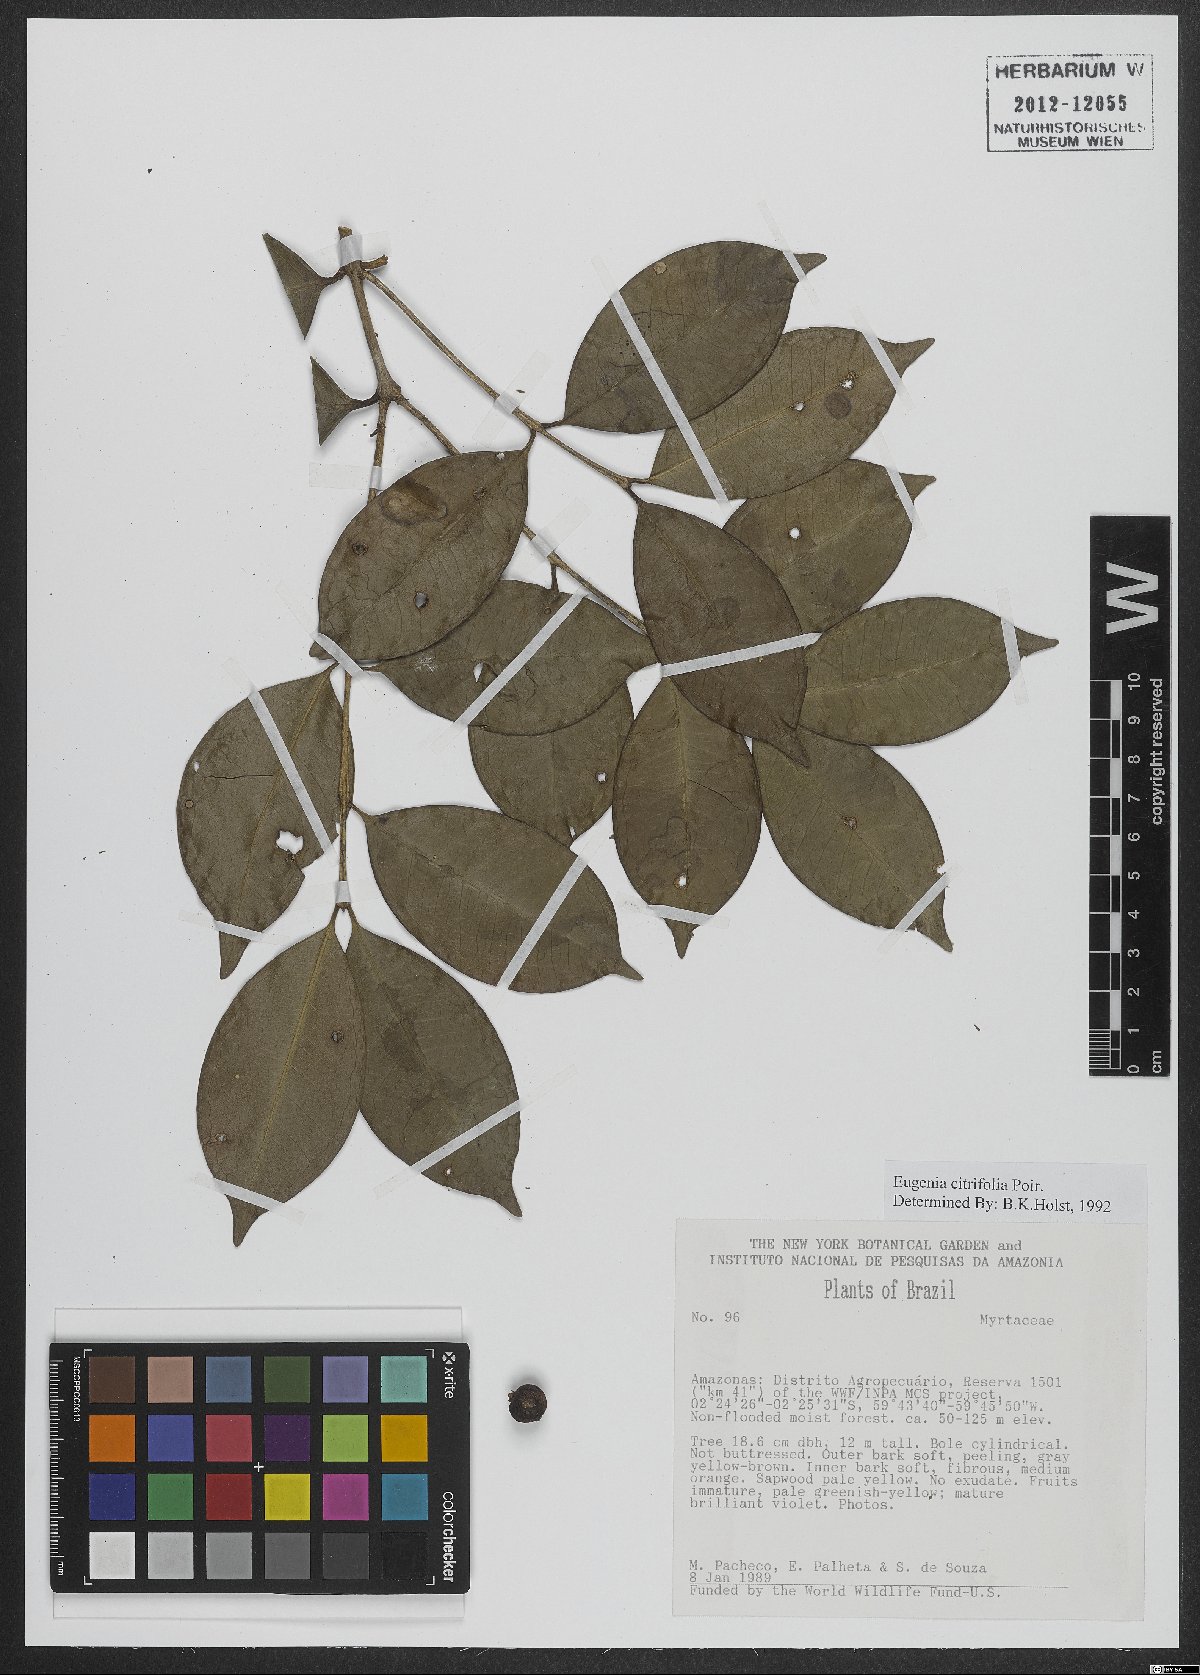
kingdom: Plantae
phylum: Tracheophyta
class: Magnoliopsida
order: Myrtales
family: Myrtaceae
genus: Eugenia
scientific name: Eugenia citrifolia
